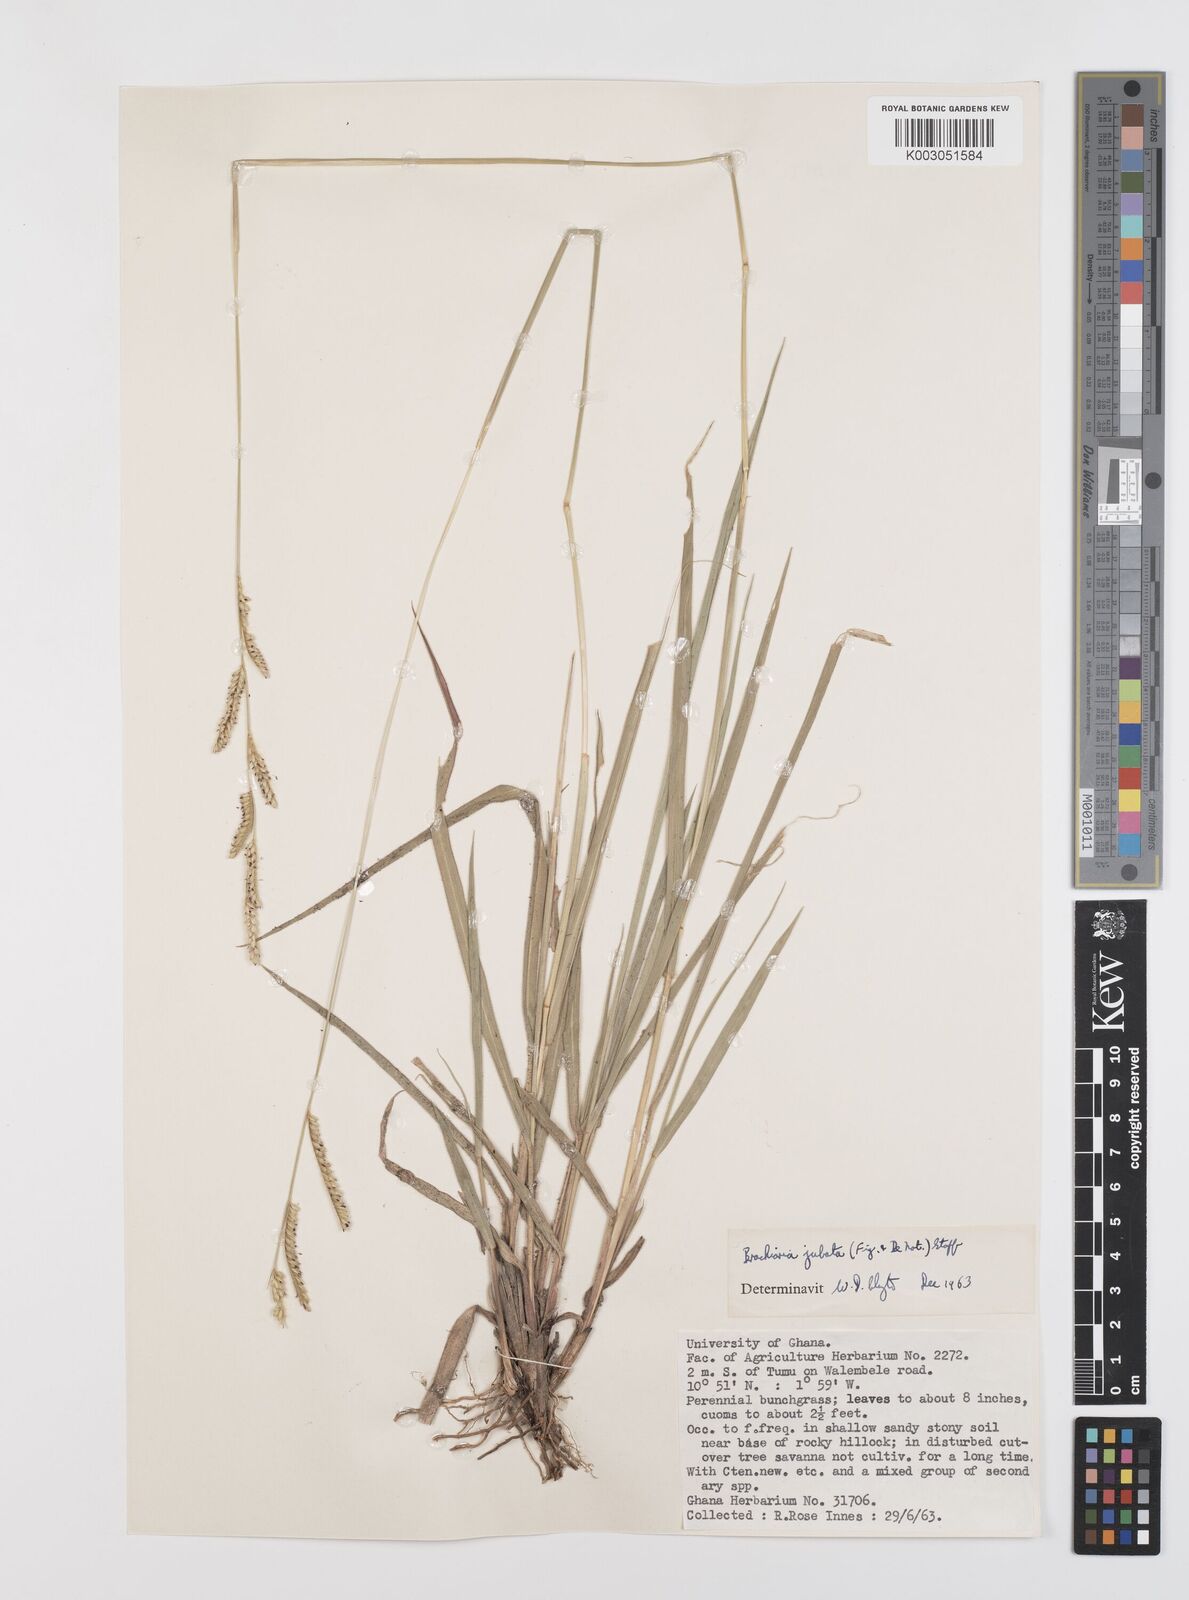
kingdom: Plantae
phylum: Tracheophyta
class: Liliopsida
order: Poales
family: Poaceae
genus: Urochloa
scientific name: Urochloa jubata
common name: Buffalograss
